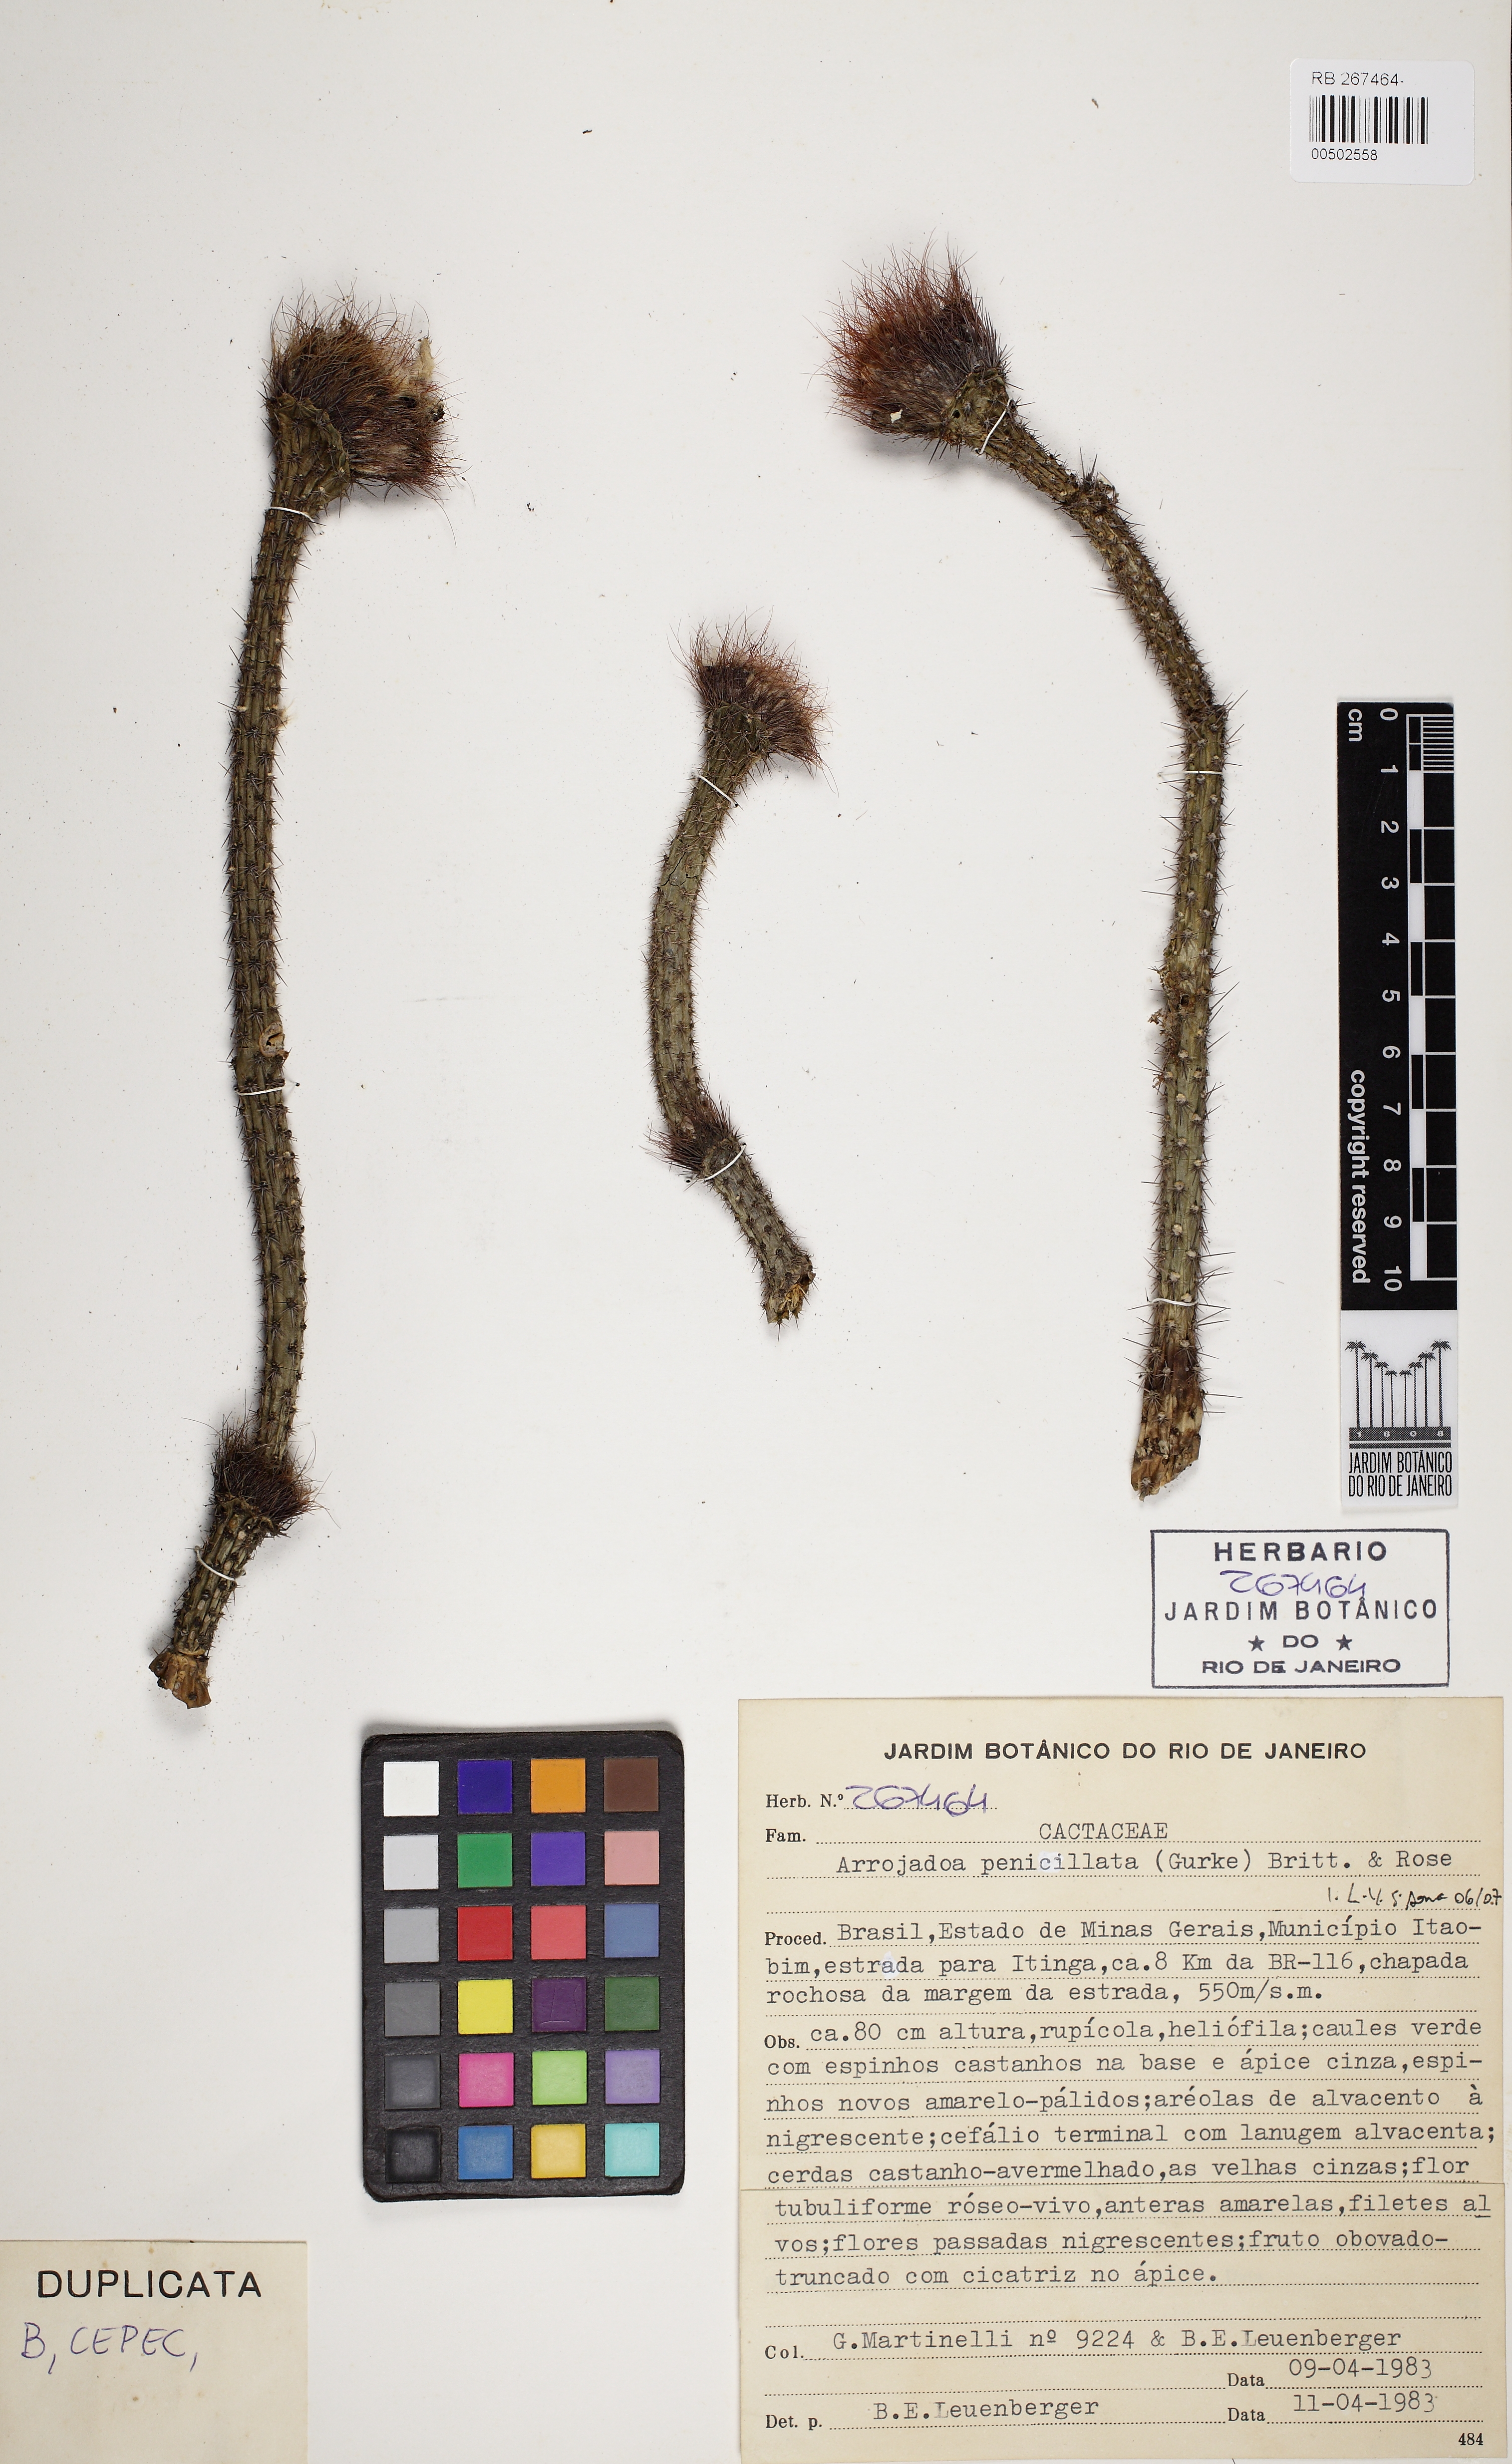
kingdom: Plantae
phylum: Tracheophyta
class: Magnoliopsida
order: Caryophyllales
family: Cactaceae
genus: Arrojadoa
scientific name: Arrojadoa penicillata
